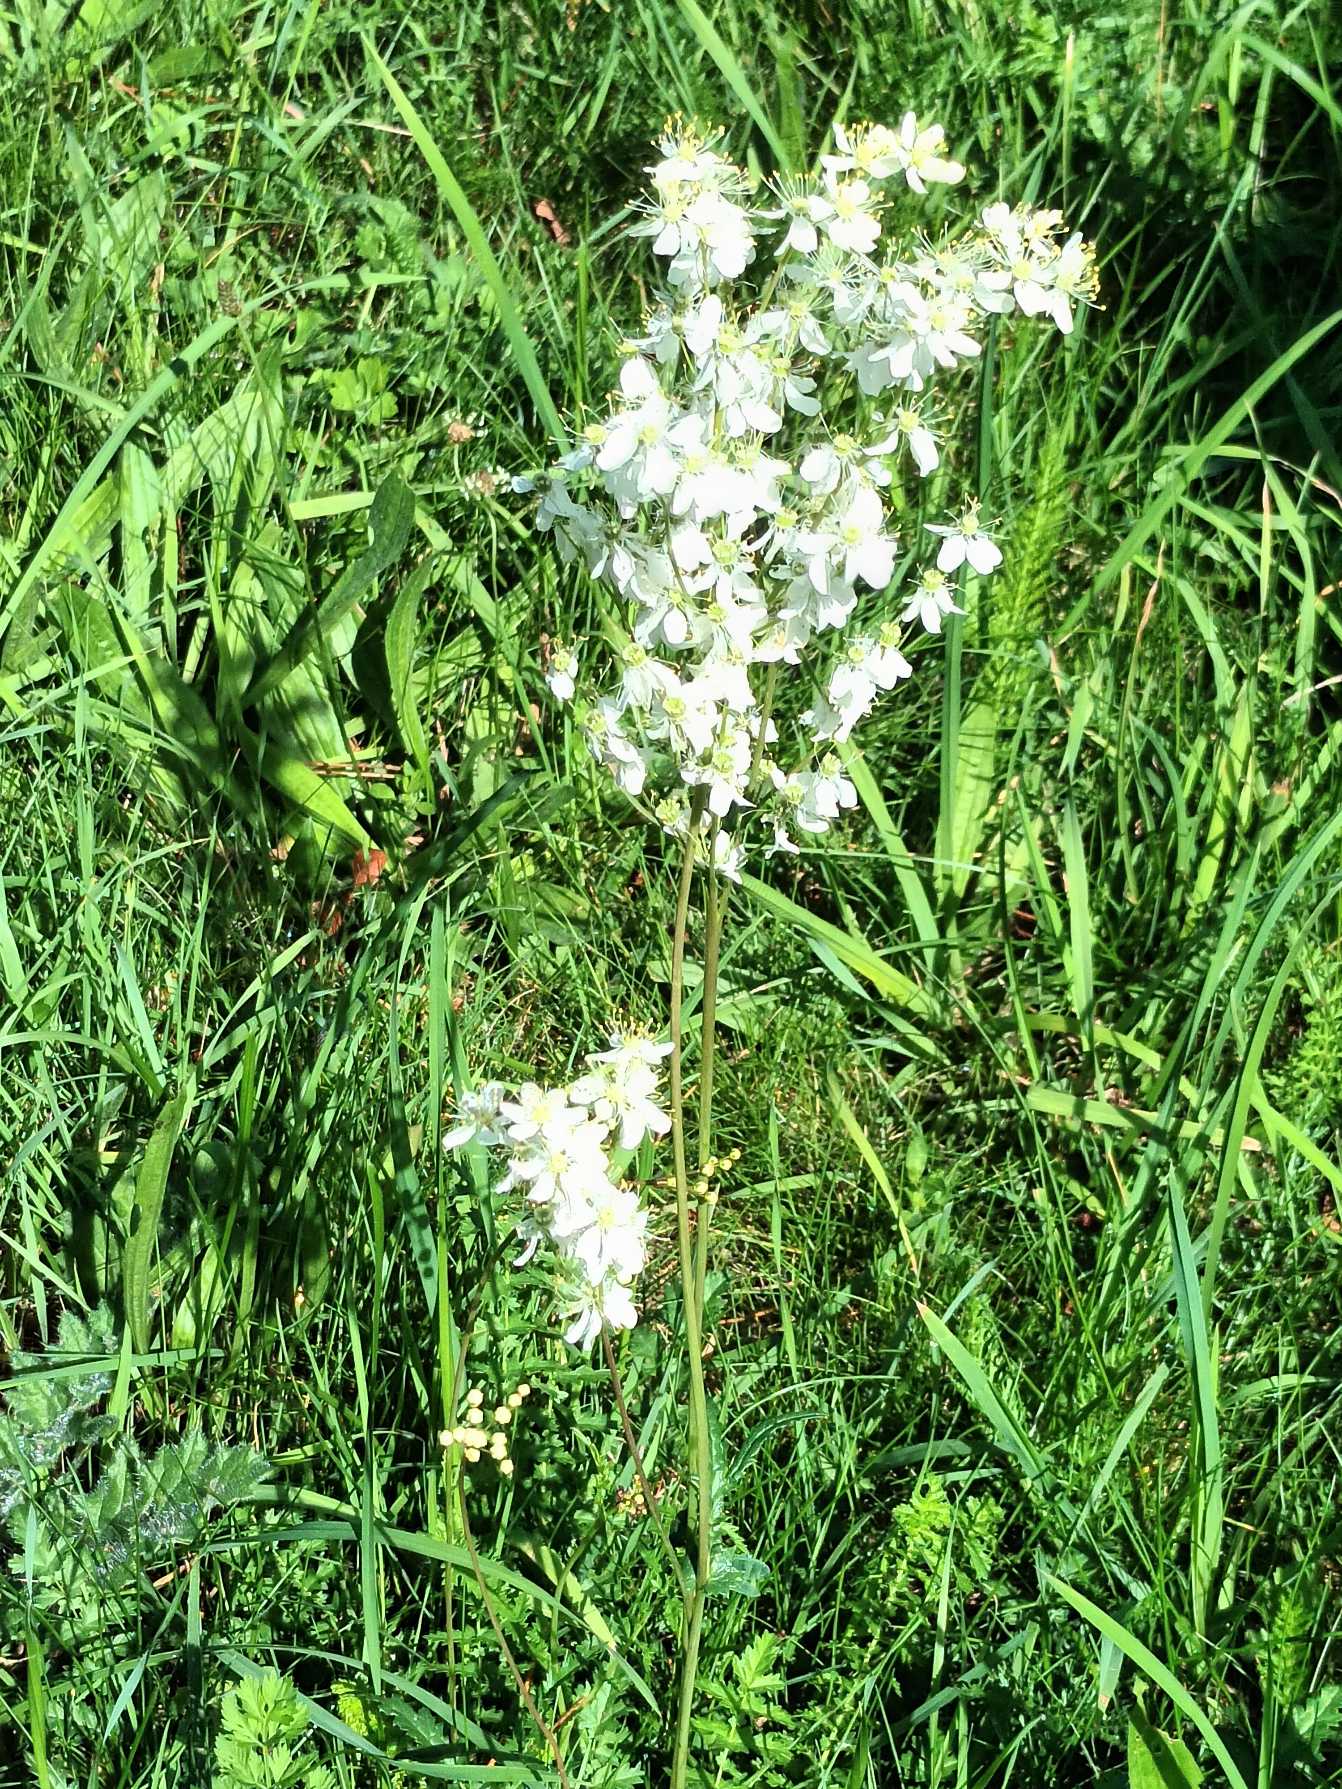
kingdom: Plantae
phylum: Tracheophyta
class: Magnoliopsida
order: Rosales
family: Rosaceae
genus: Filipendula
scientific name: Filipendula vulgaris
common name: Knoldet mjødurt
